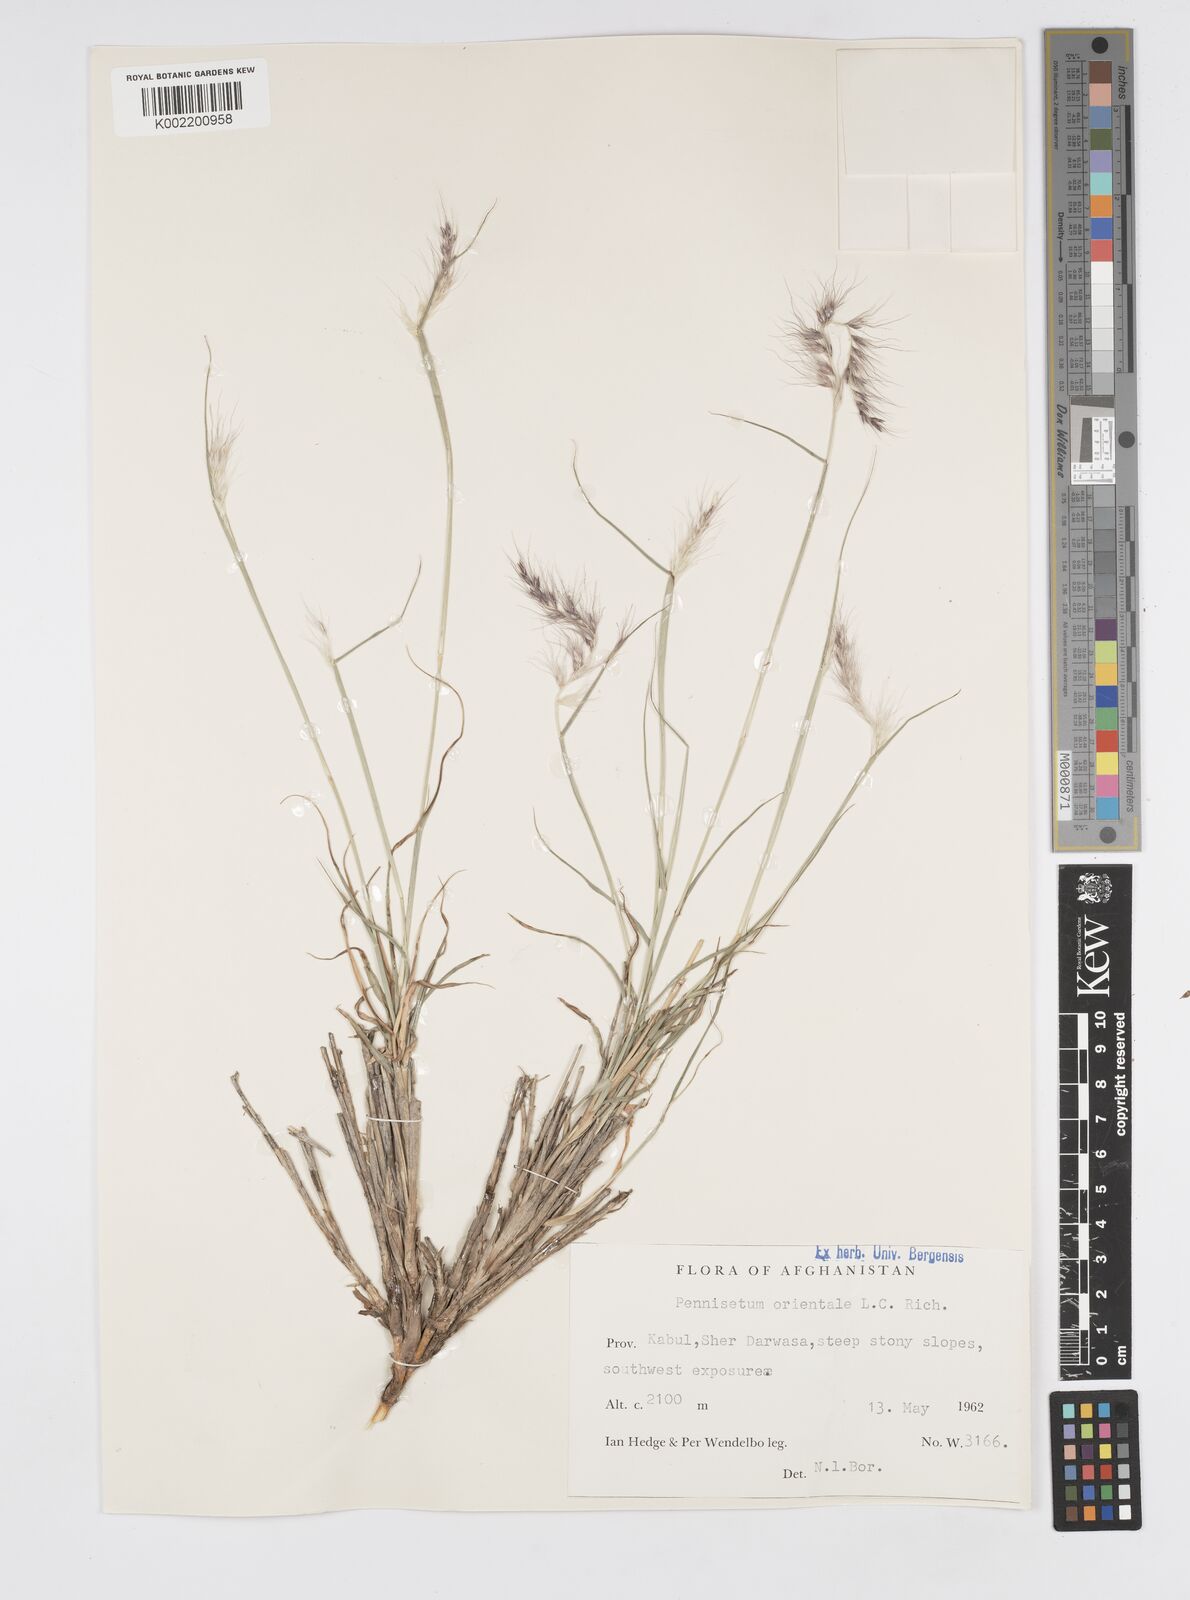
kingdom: Plantae
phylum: Tracheophyta
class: Liliopsida
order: Poales
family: Poaceae
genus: Cenchrus
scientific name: Cenchrus orientalis
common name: Oriental fountain grass
